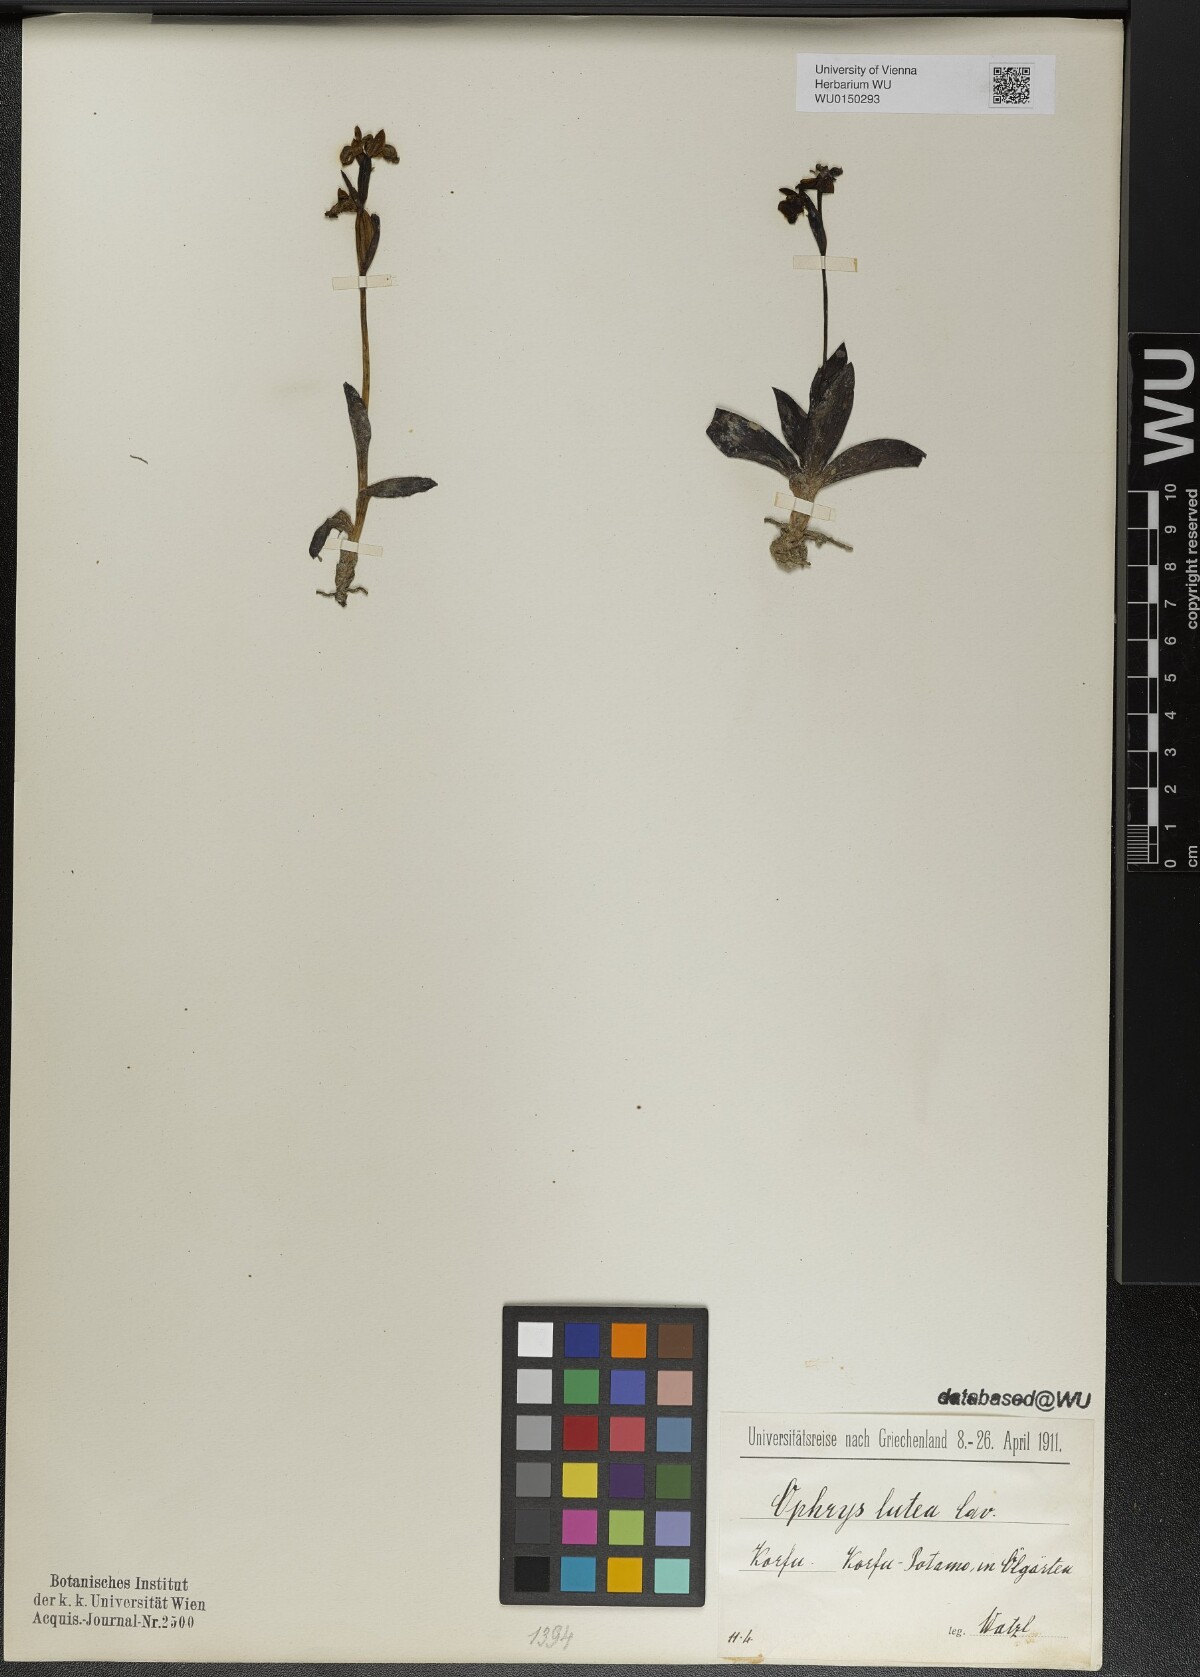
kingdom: Plantae
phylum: Tracheophyta
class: Liliopsida
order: Asparagales
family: Orchidaceae
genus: Ophrys
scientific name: Ophrys lutea
